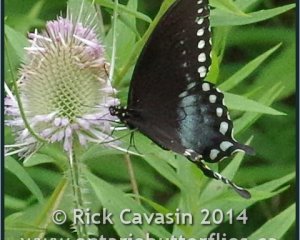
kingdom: Animalia
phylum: Arthropoda
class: Insecta
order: Lepidoptera
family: Papilionidae
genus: Pterourus
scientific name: Pterourus troilus
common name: Spicebush Swallowtail
